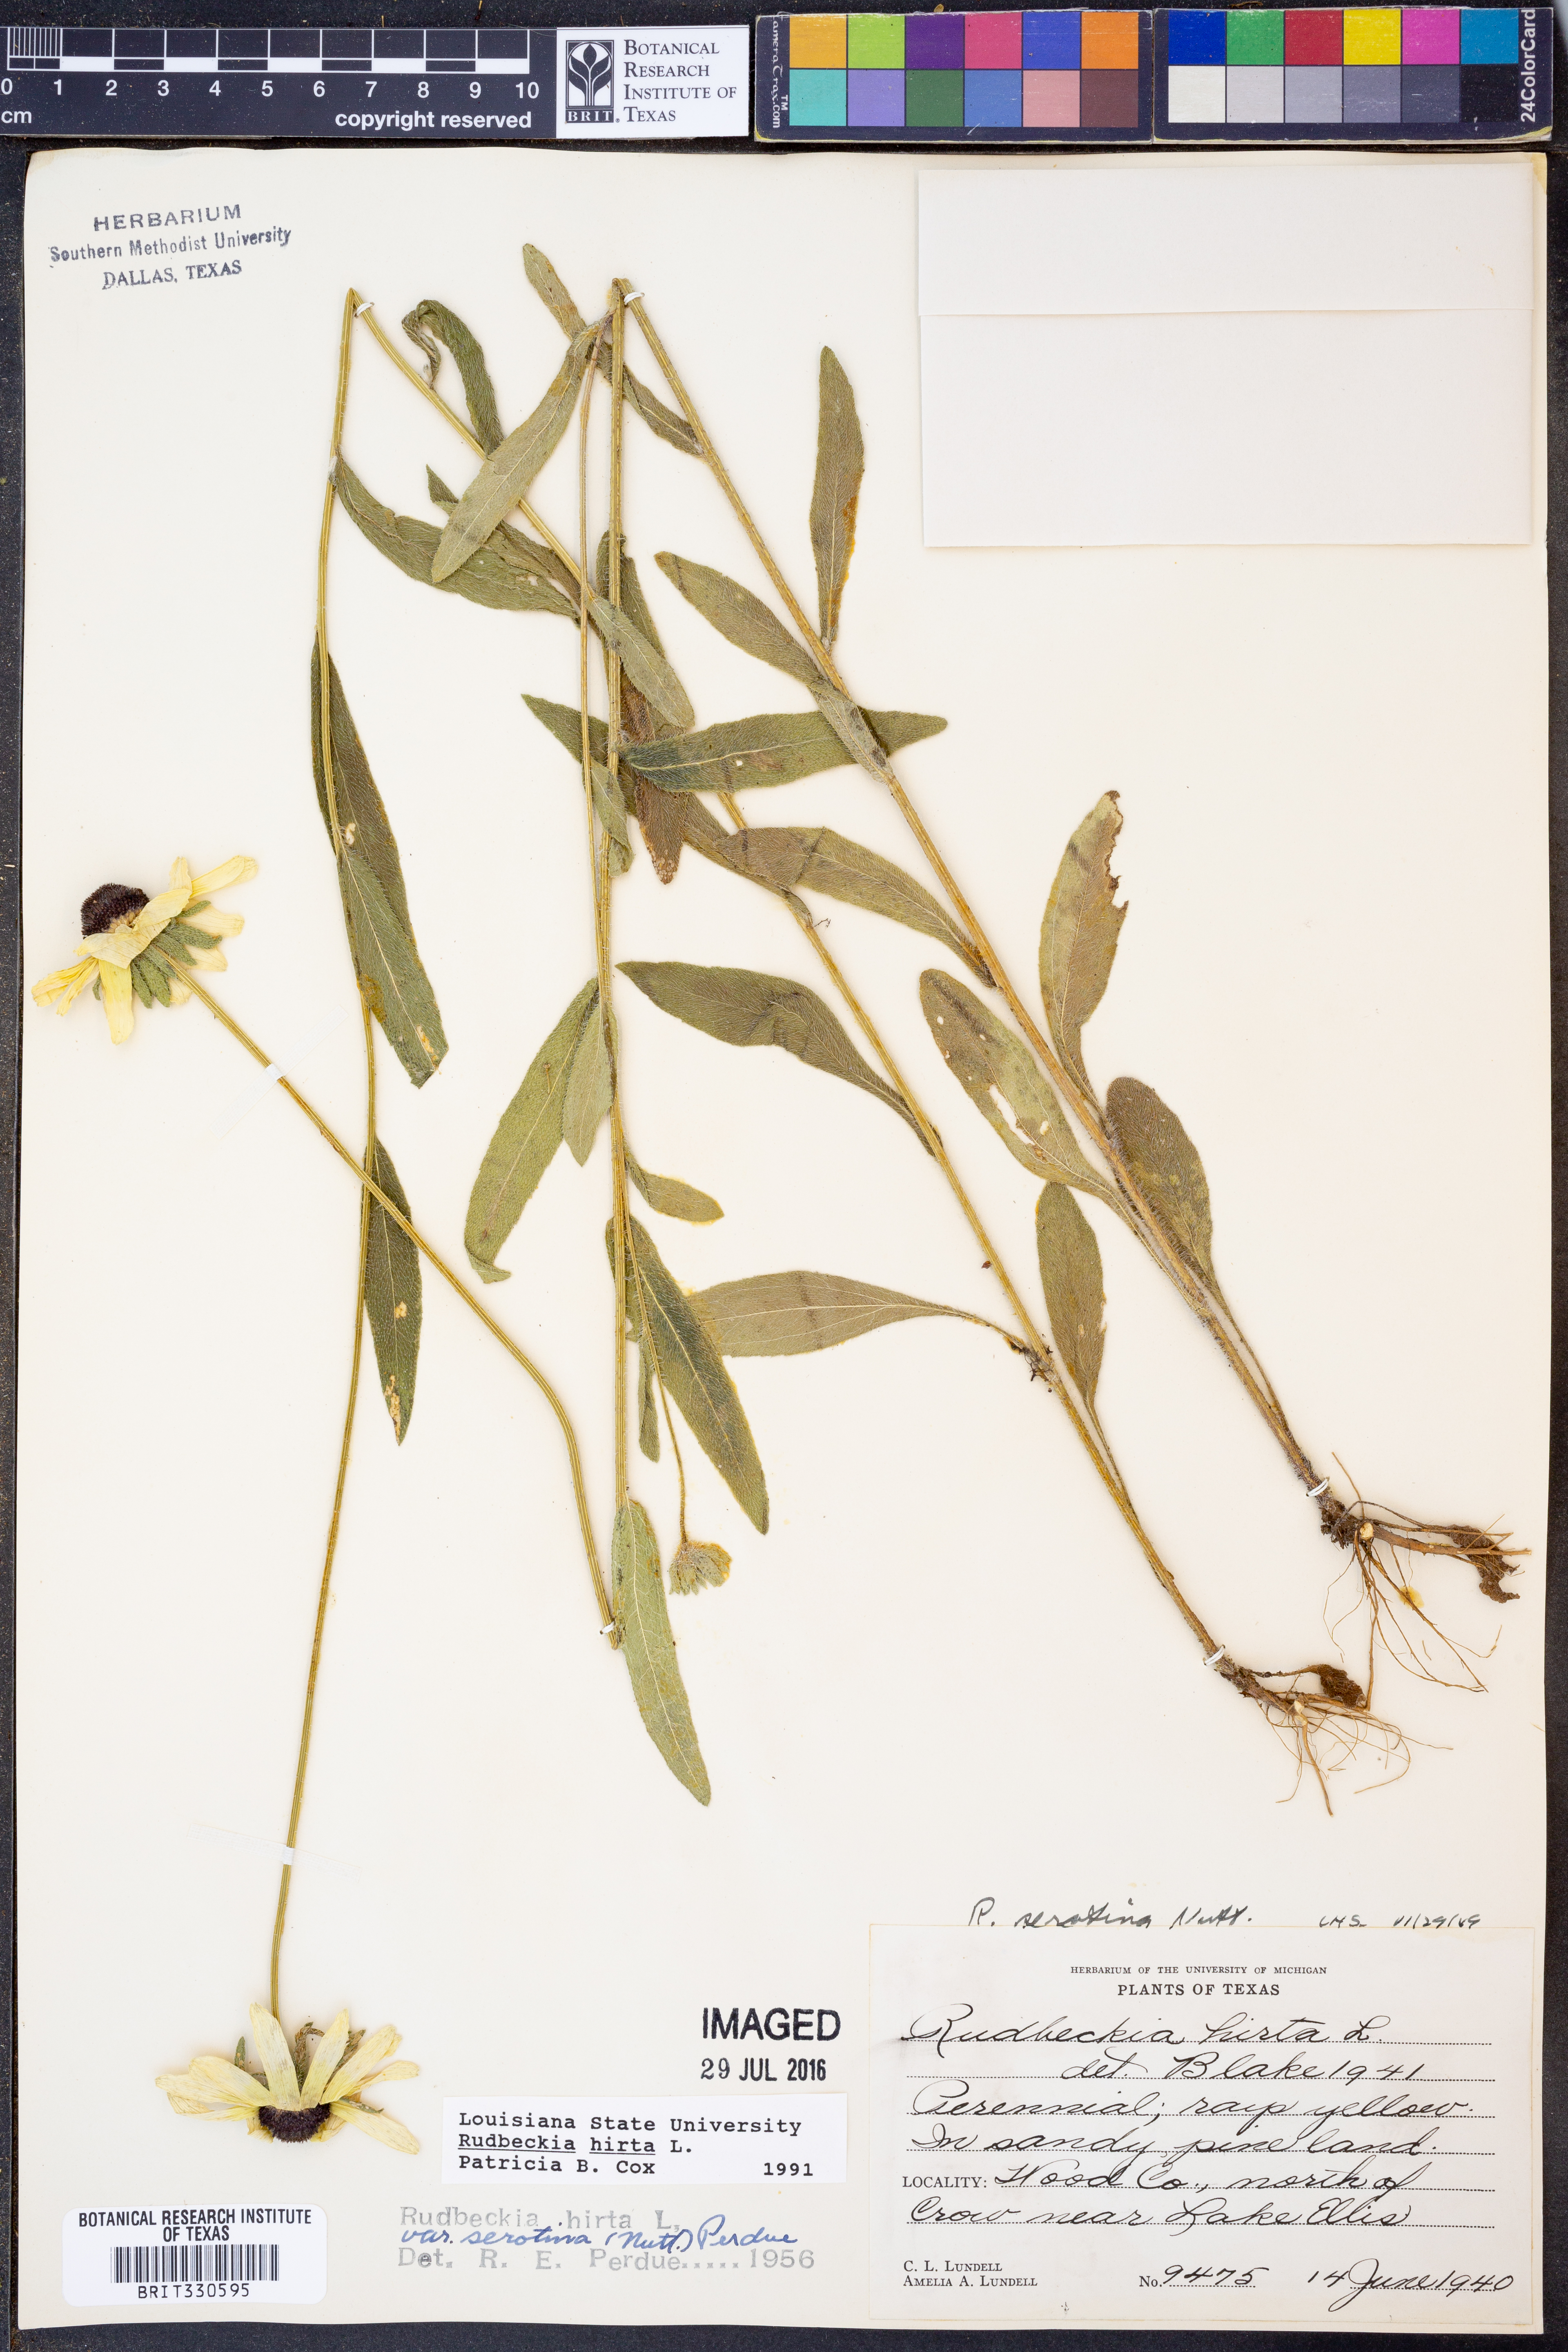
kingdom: Plantae
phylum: Tracheophyta
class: Magnoliopsida
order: Asterales
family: Asteraceae
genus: Rudbeckia
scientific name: Rudbeckia hirta
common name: Black-eyed-susan
